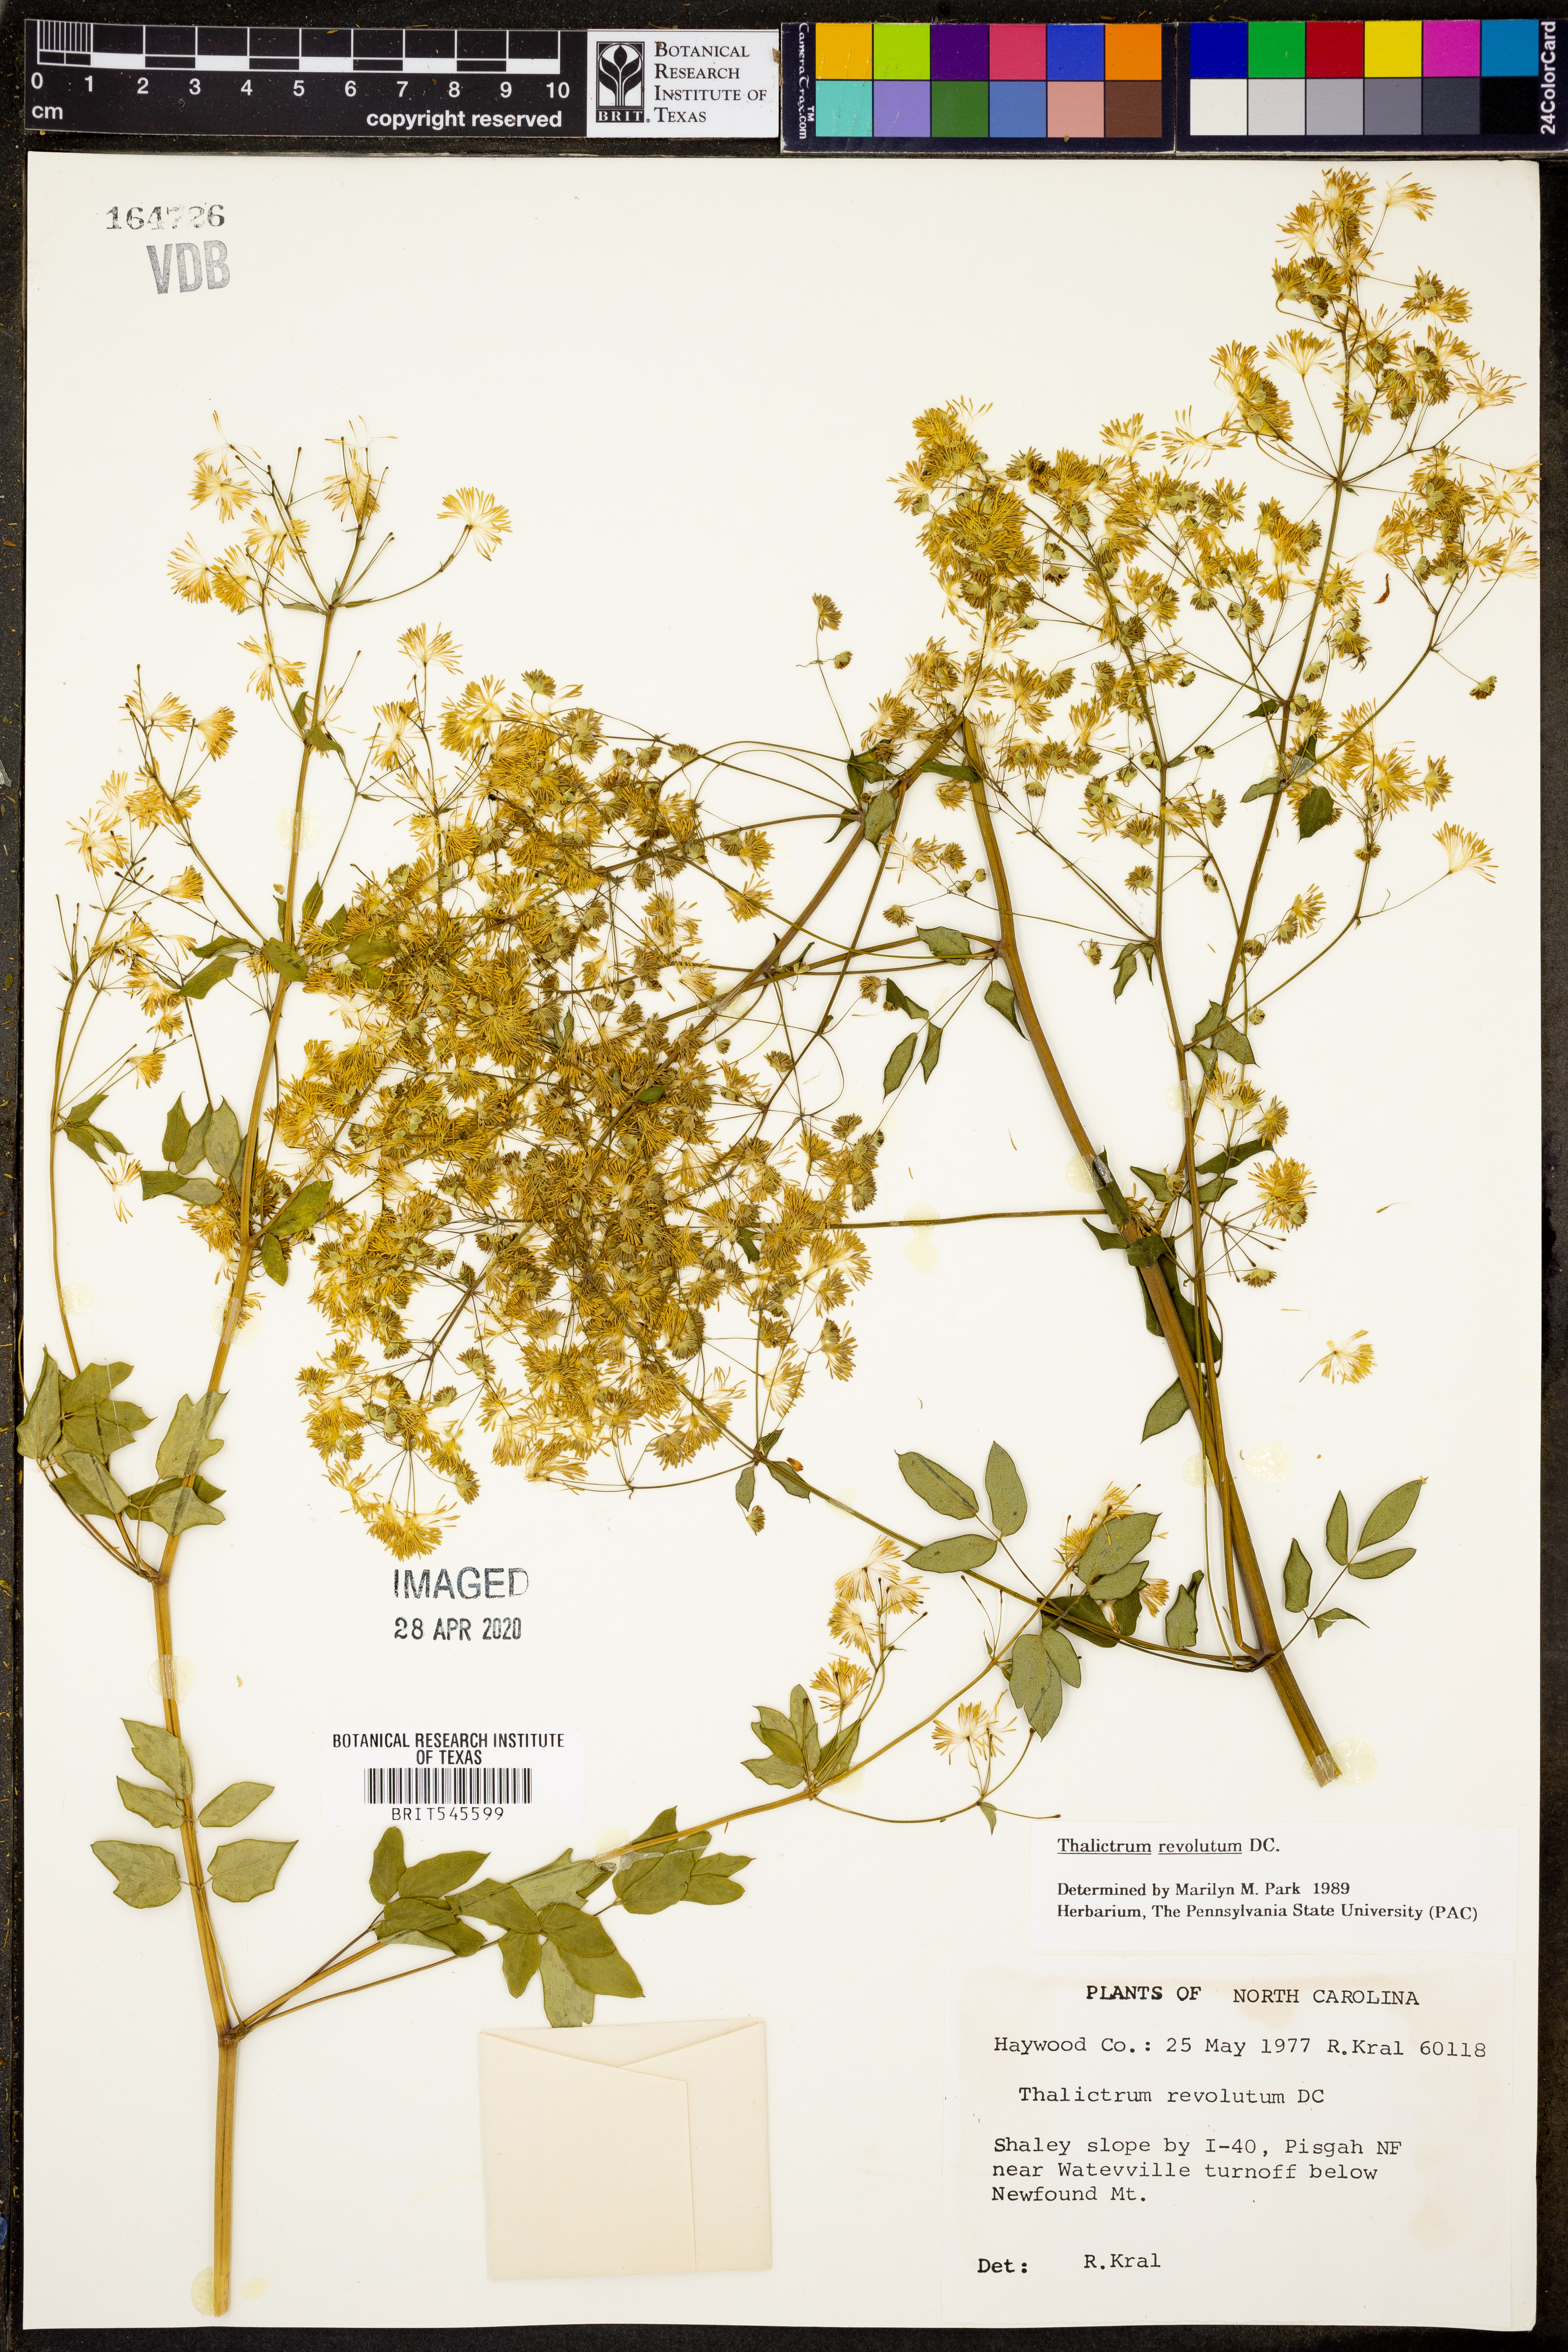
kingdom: Plantae
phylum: Tracheophyta
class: Magnoliopsida
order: Ranunculales
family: Ranunculaceae
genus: Thalictrum
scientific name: Thalictrum revolutum
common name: Waxy meadow-rue
